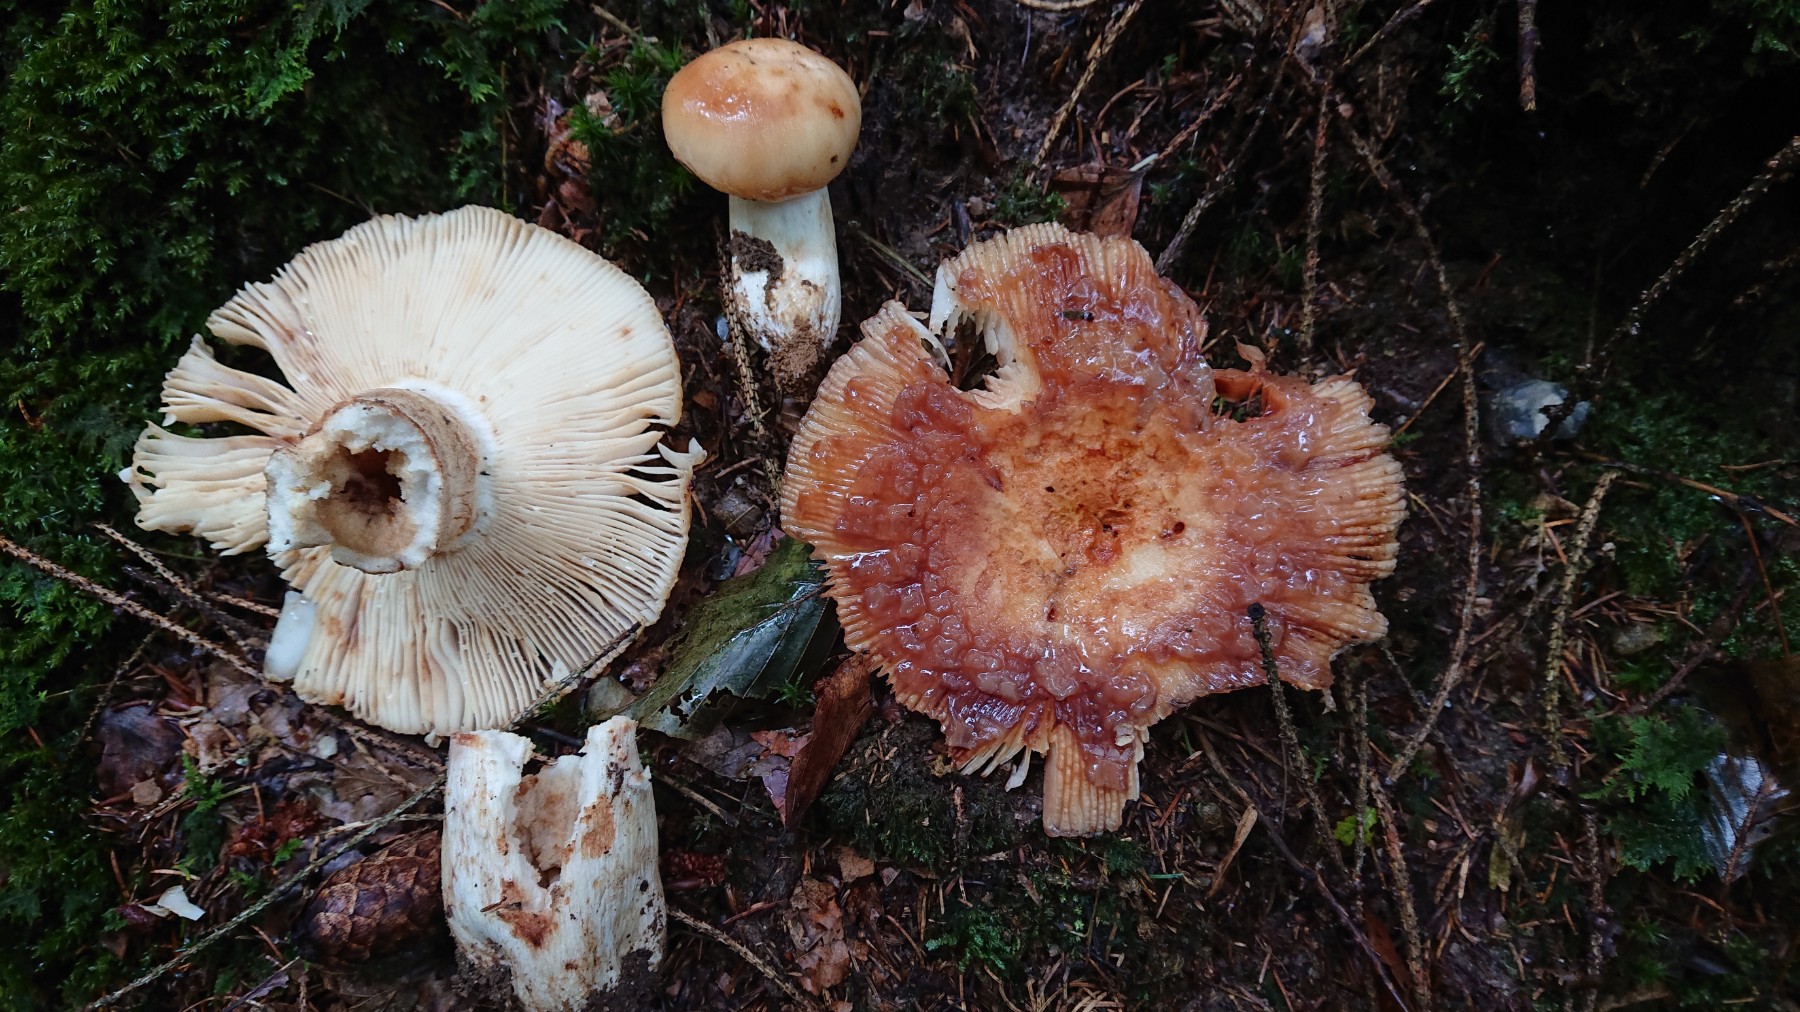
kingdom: Fungi
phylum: Basidiomycota
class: Agaricomycetes
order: Russulales
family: Russulaceae
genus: Russula
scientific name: Russula grata
